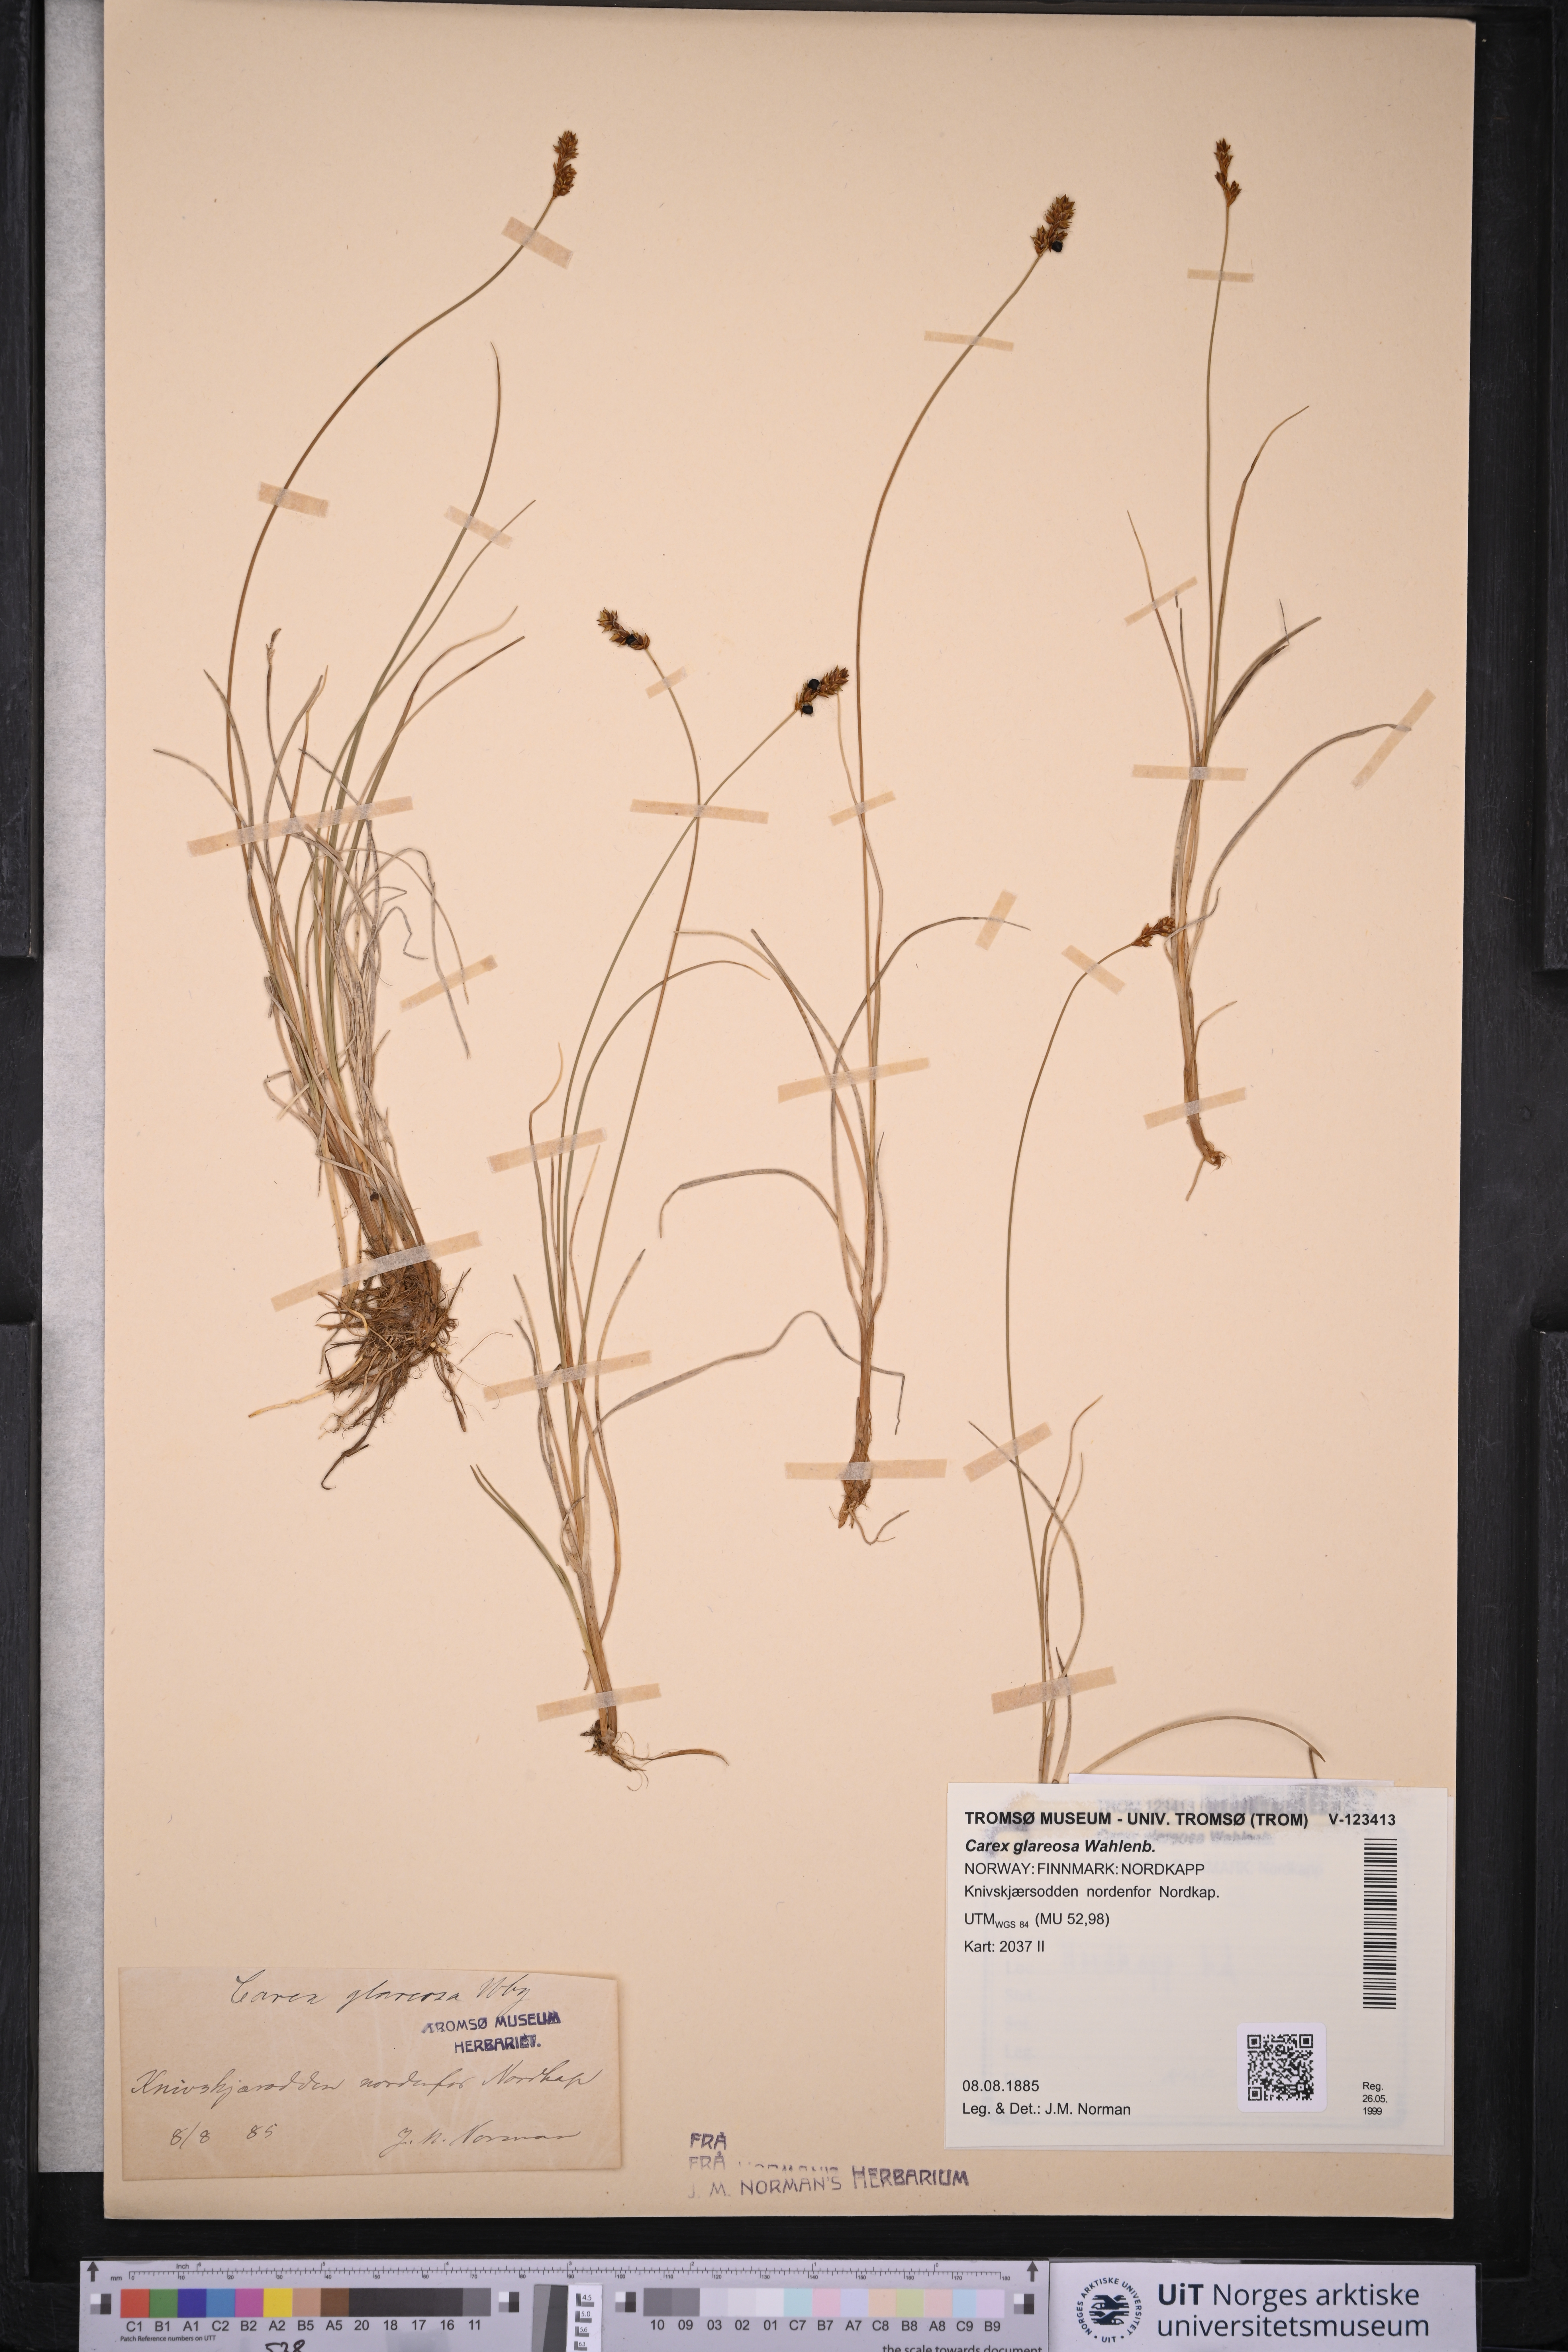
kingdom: Plantae
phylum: Tracheophyta
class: Liliopsida
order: Poales
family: Cyperaceae
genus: Carex
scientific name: Carex glareosa
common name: Clustered sedge
